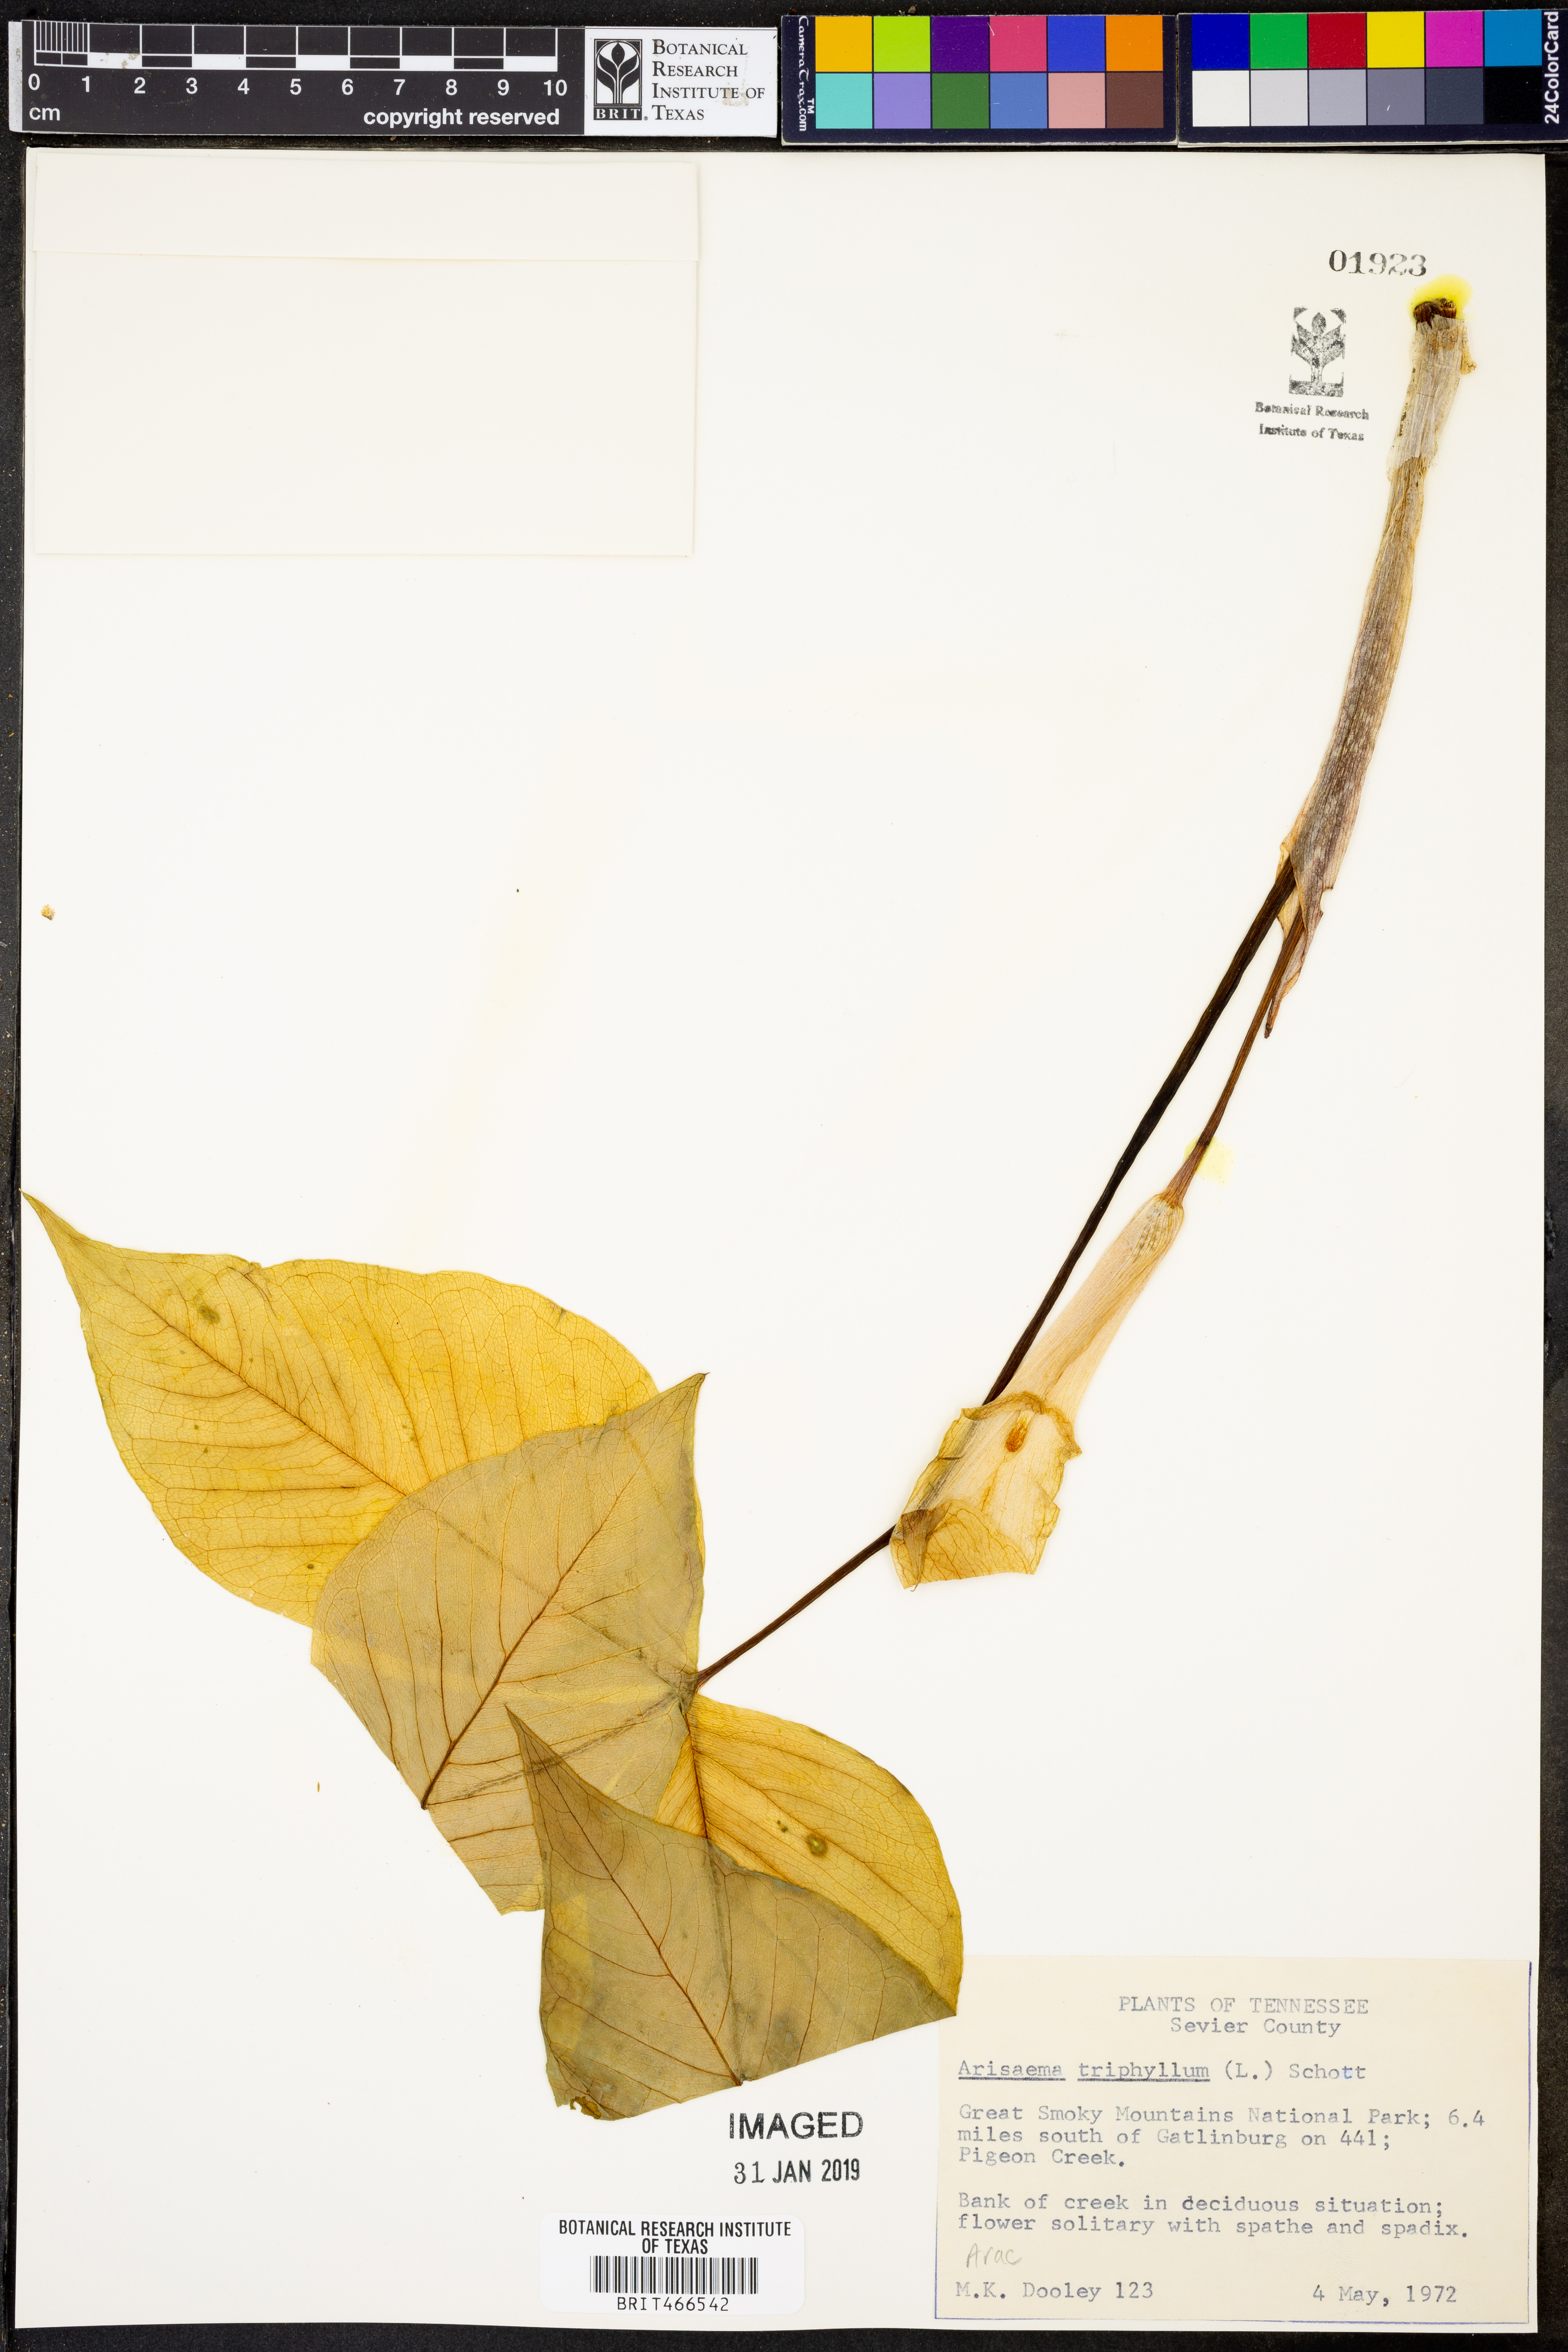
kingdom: Plantae
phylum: Tracheophyta
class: Liliopsida
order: Alismatales
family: Araceae
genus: Arisaema
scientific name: Arisaema triphyllum
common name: Jack-in-the-pulpit
